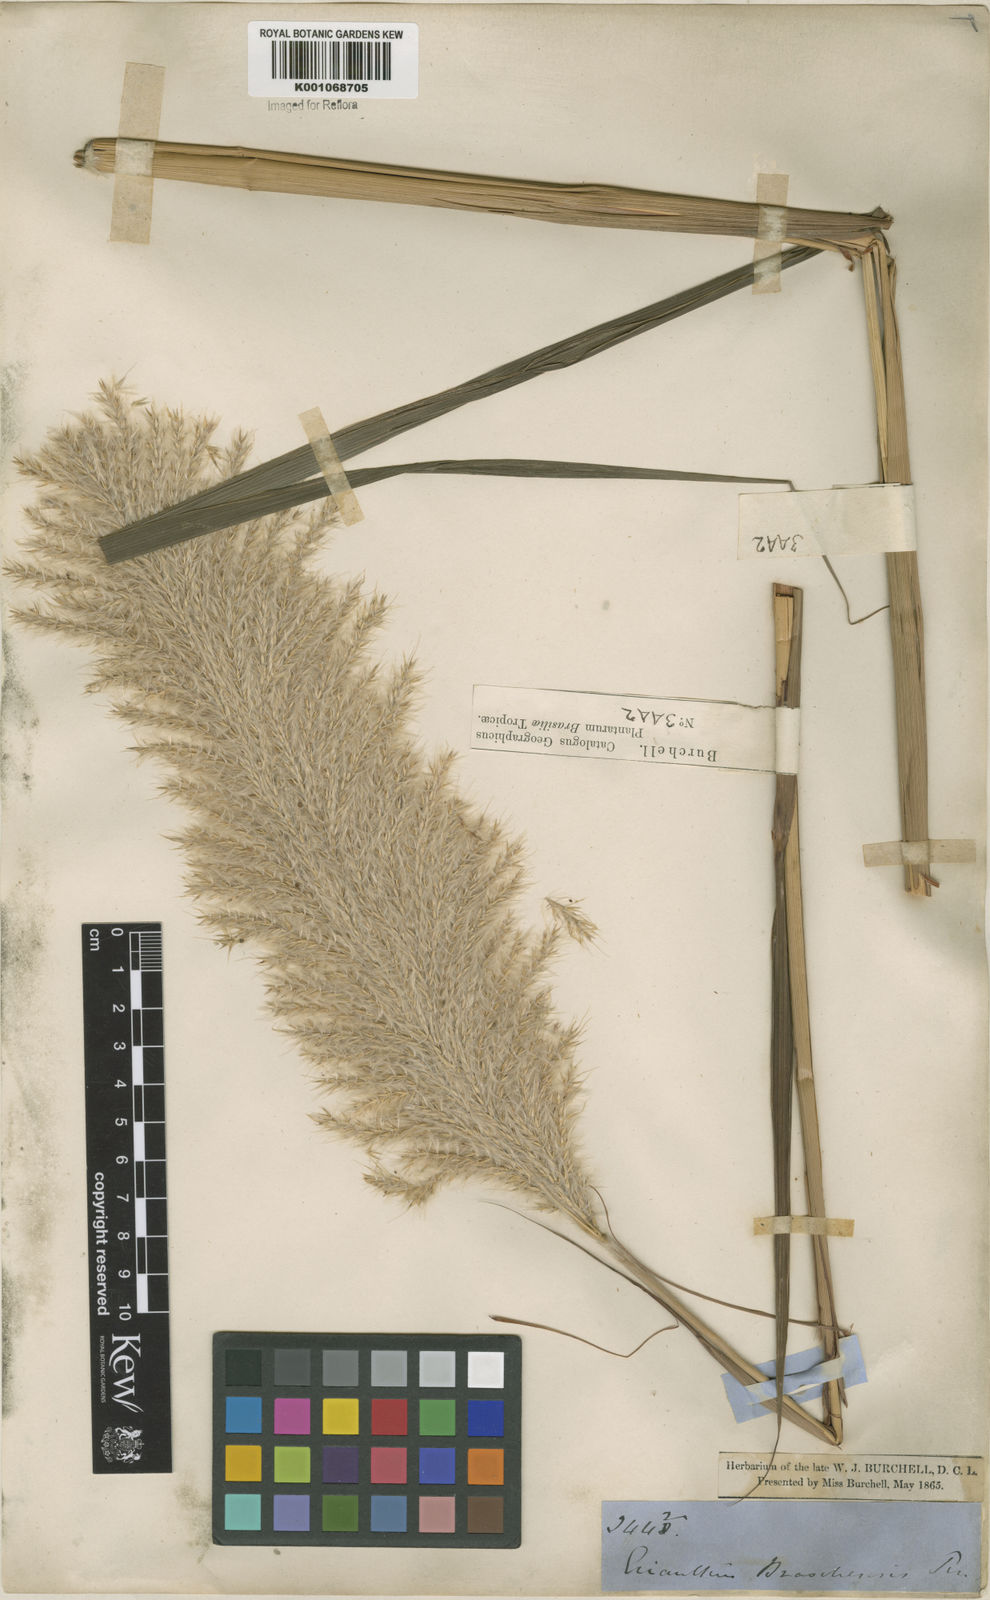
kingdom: Plantae
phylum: Tracheophyta
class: Liliopsida
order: Poales
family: Poaceae
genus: Erianthus
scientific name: Erianthus asper
